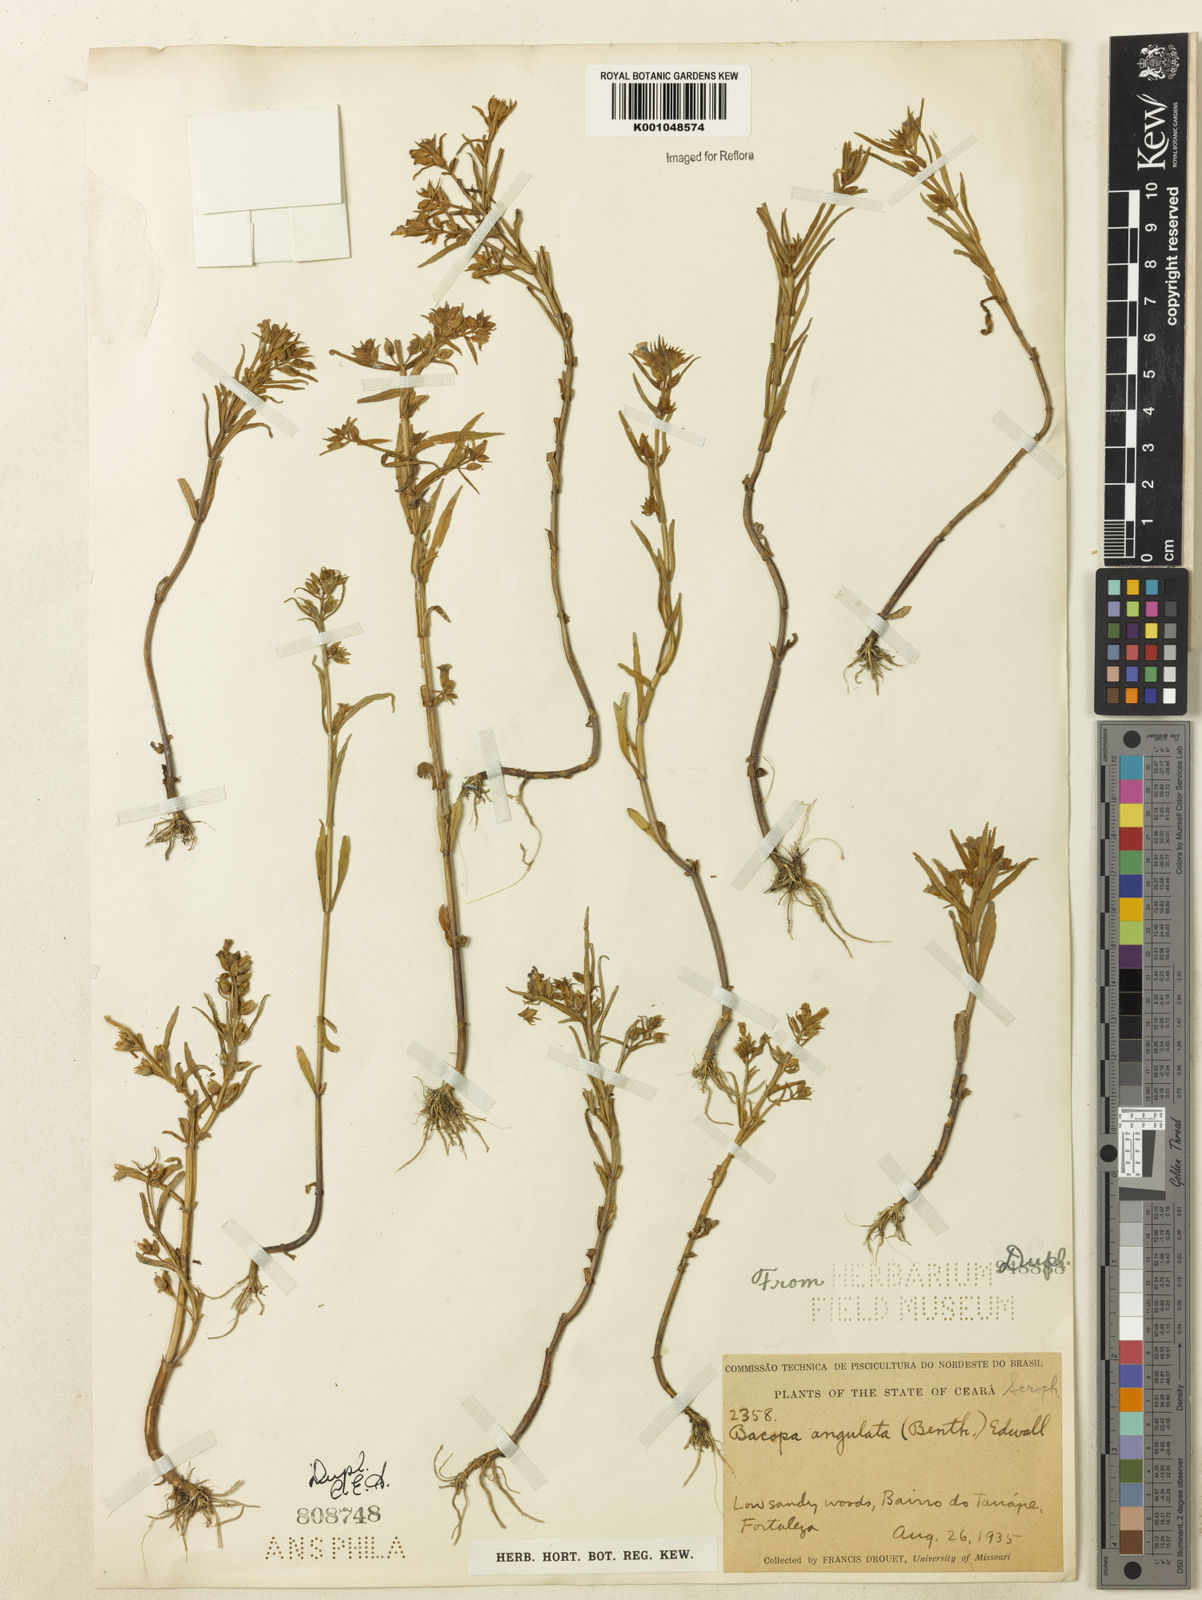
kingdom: Plantae
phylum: Tracheophyta
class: Magnoliopsida
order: Lamiales
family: Plantaginaceae
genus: Bacopa
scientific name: Bacopa angulata
